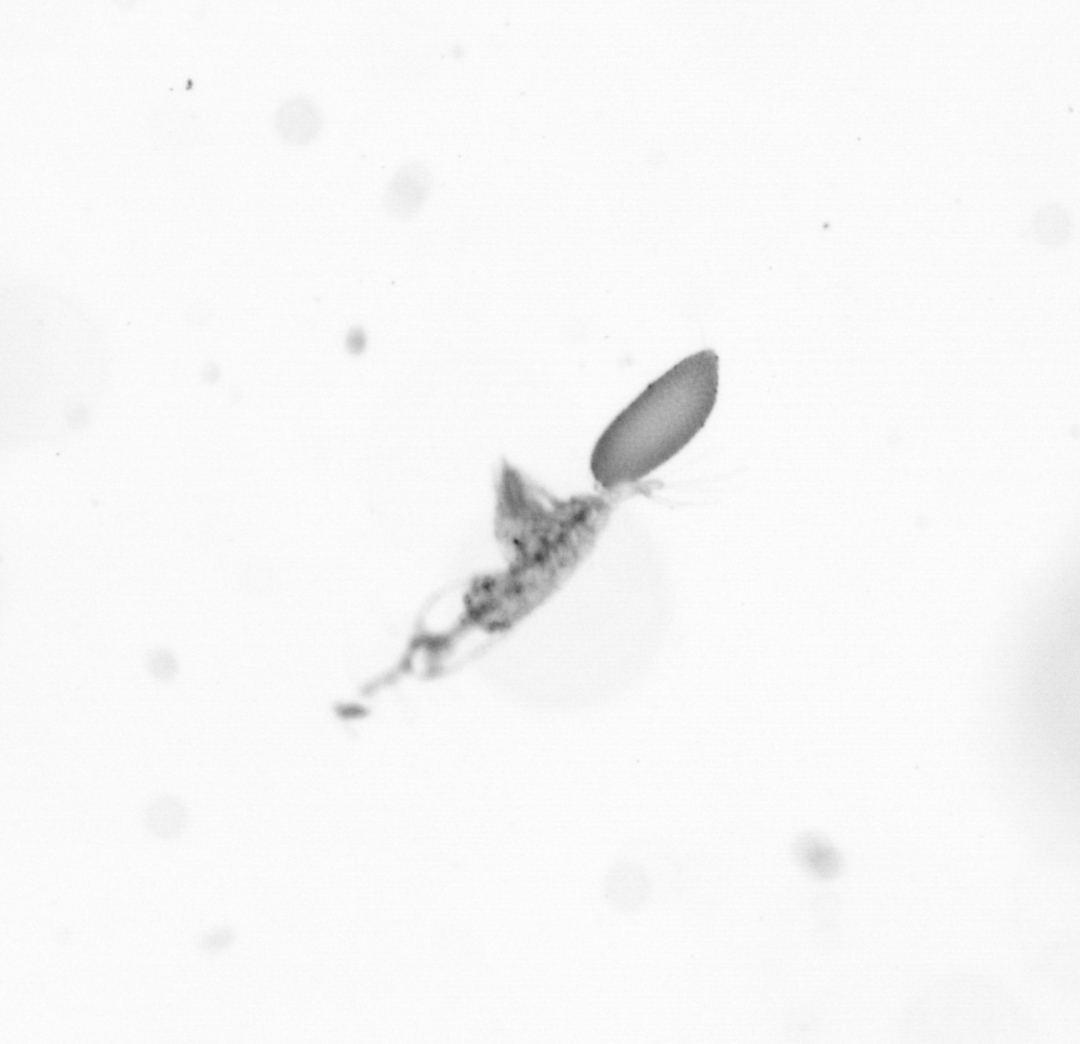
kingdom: Animalia
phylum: Arthropoda
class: Copepoda
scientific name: Copepoda
